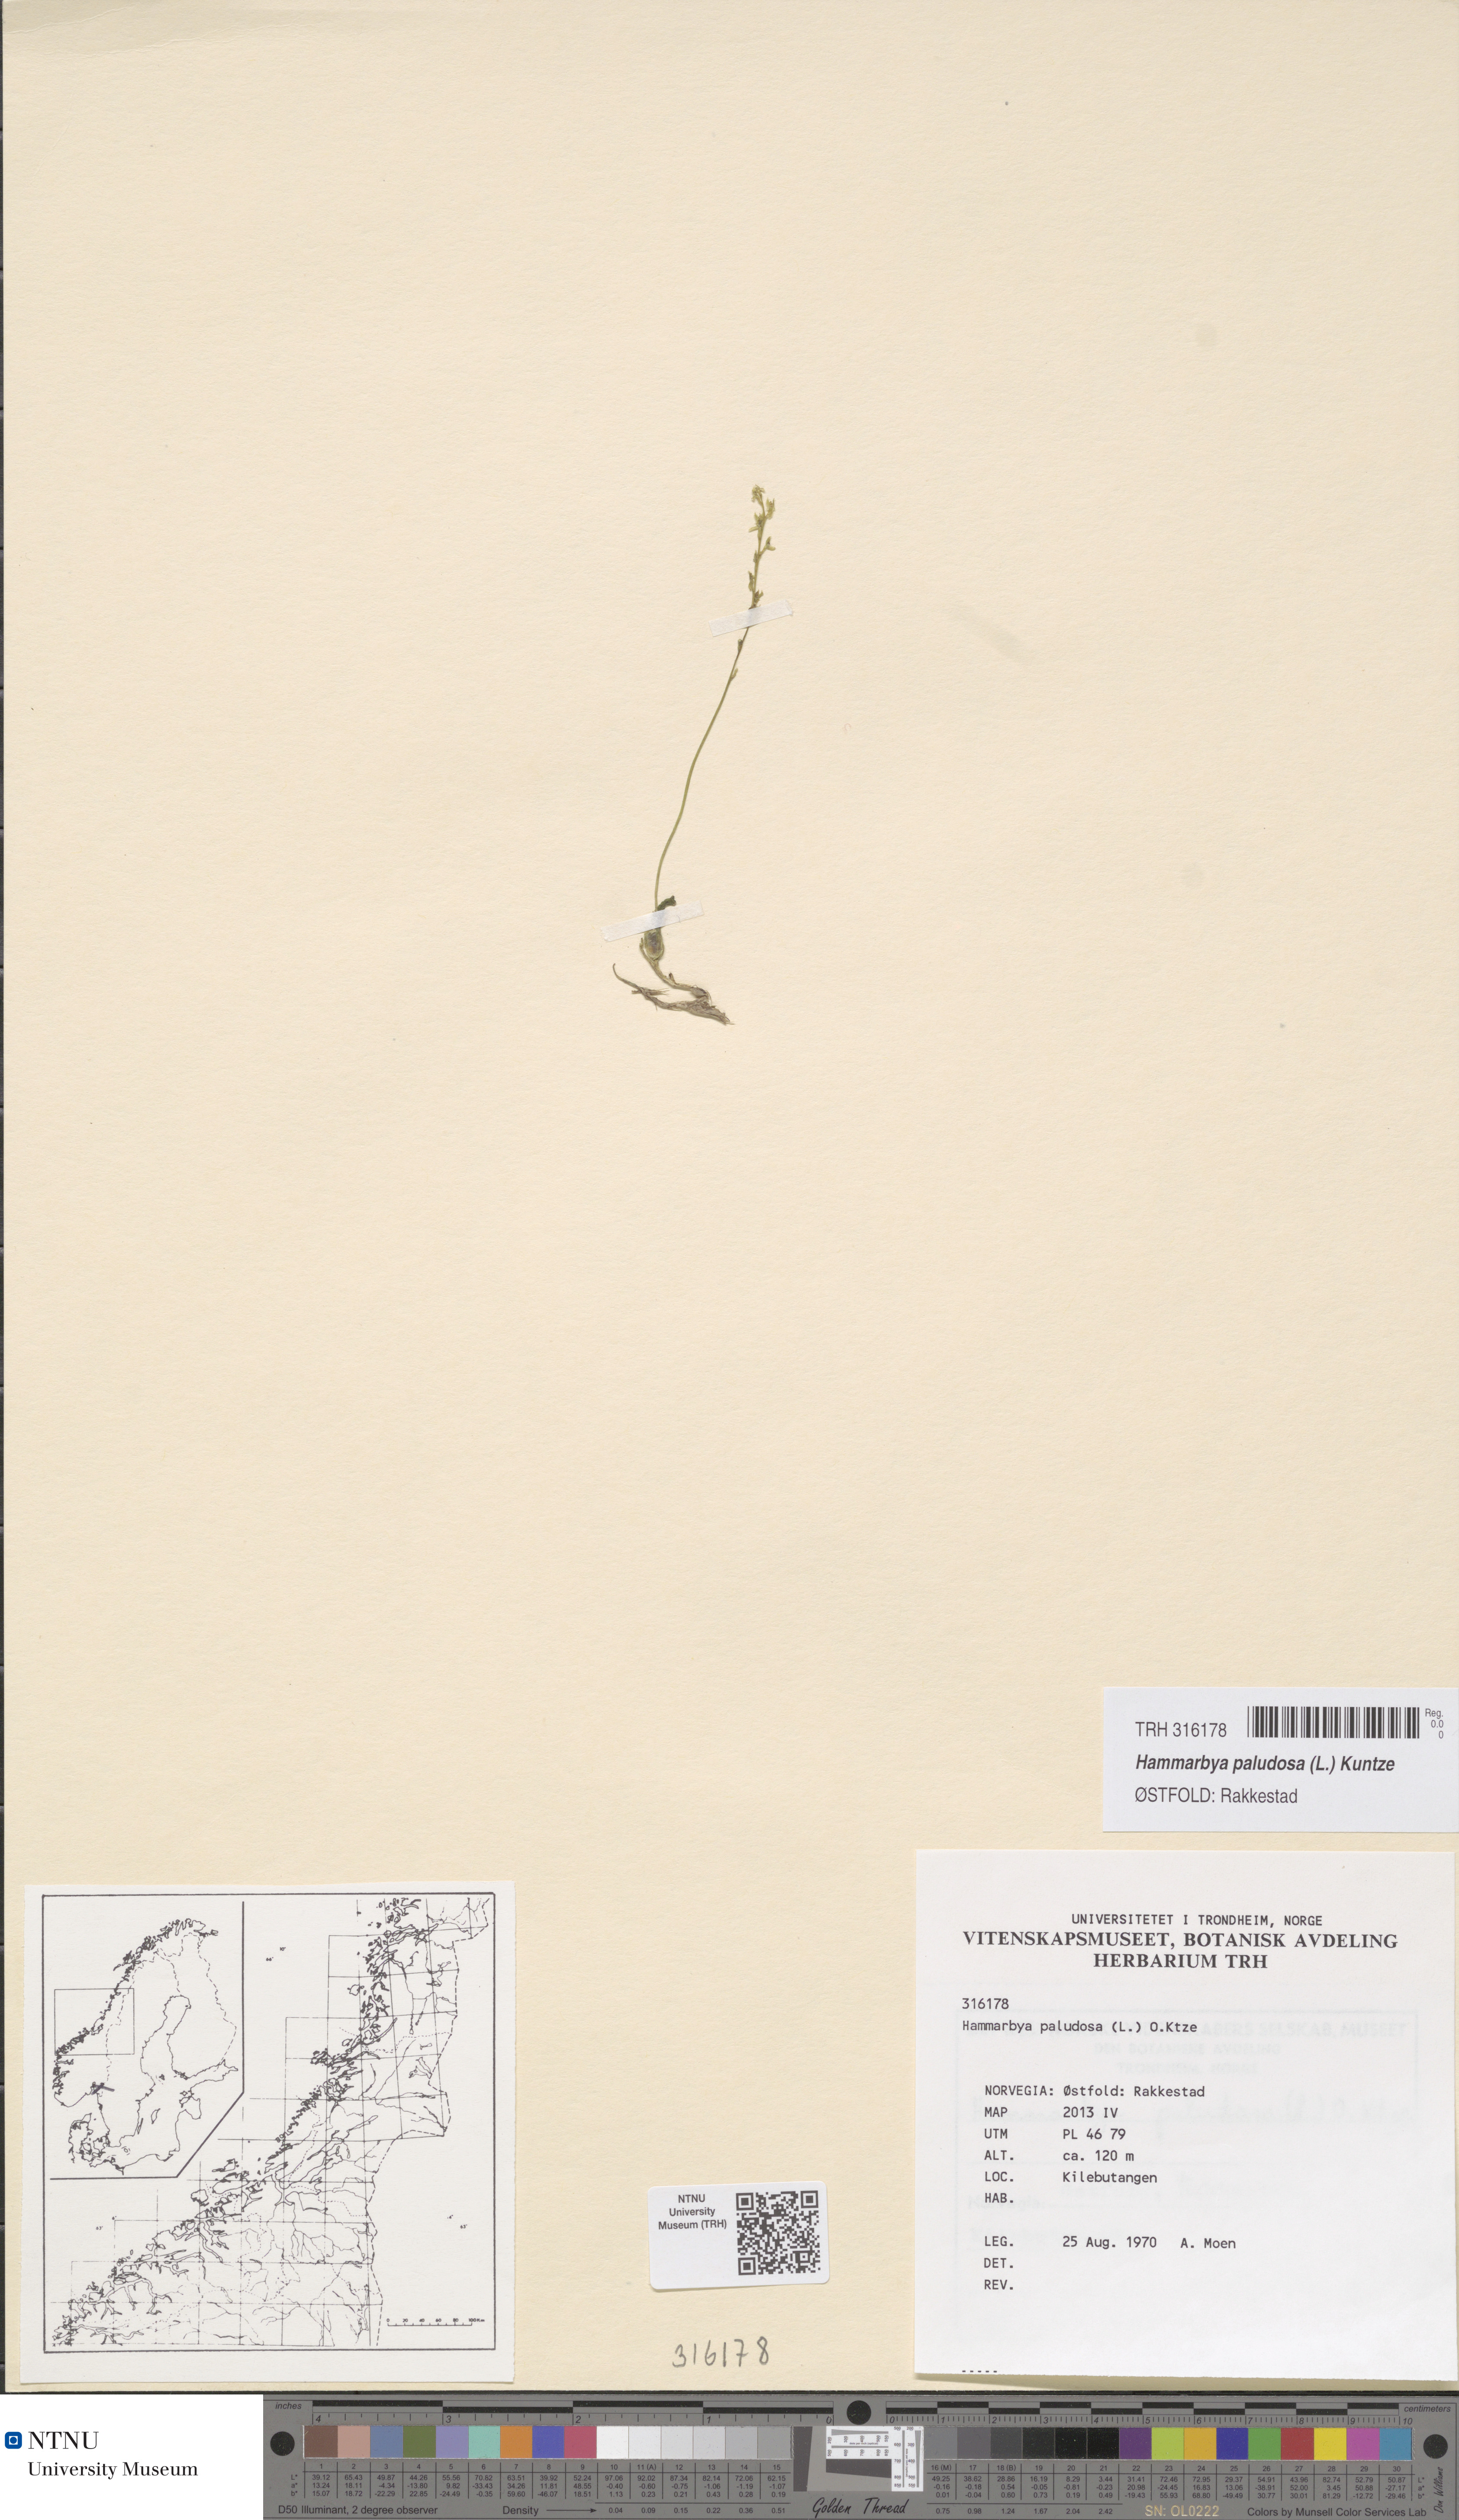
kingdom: Plantae
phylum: Tracheophyta
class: Liliopsida
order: Asparagales
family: Orchidaceae
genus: Hammarbya
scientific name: Hammarbya paludosa
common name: Bog orchid
